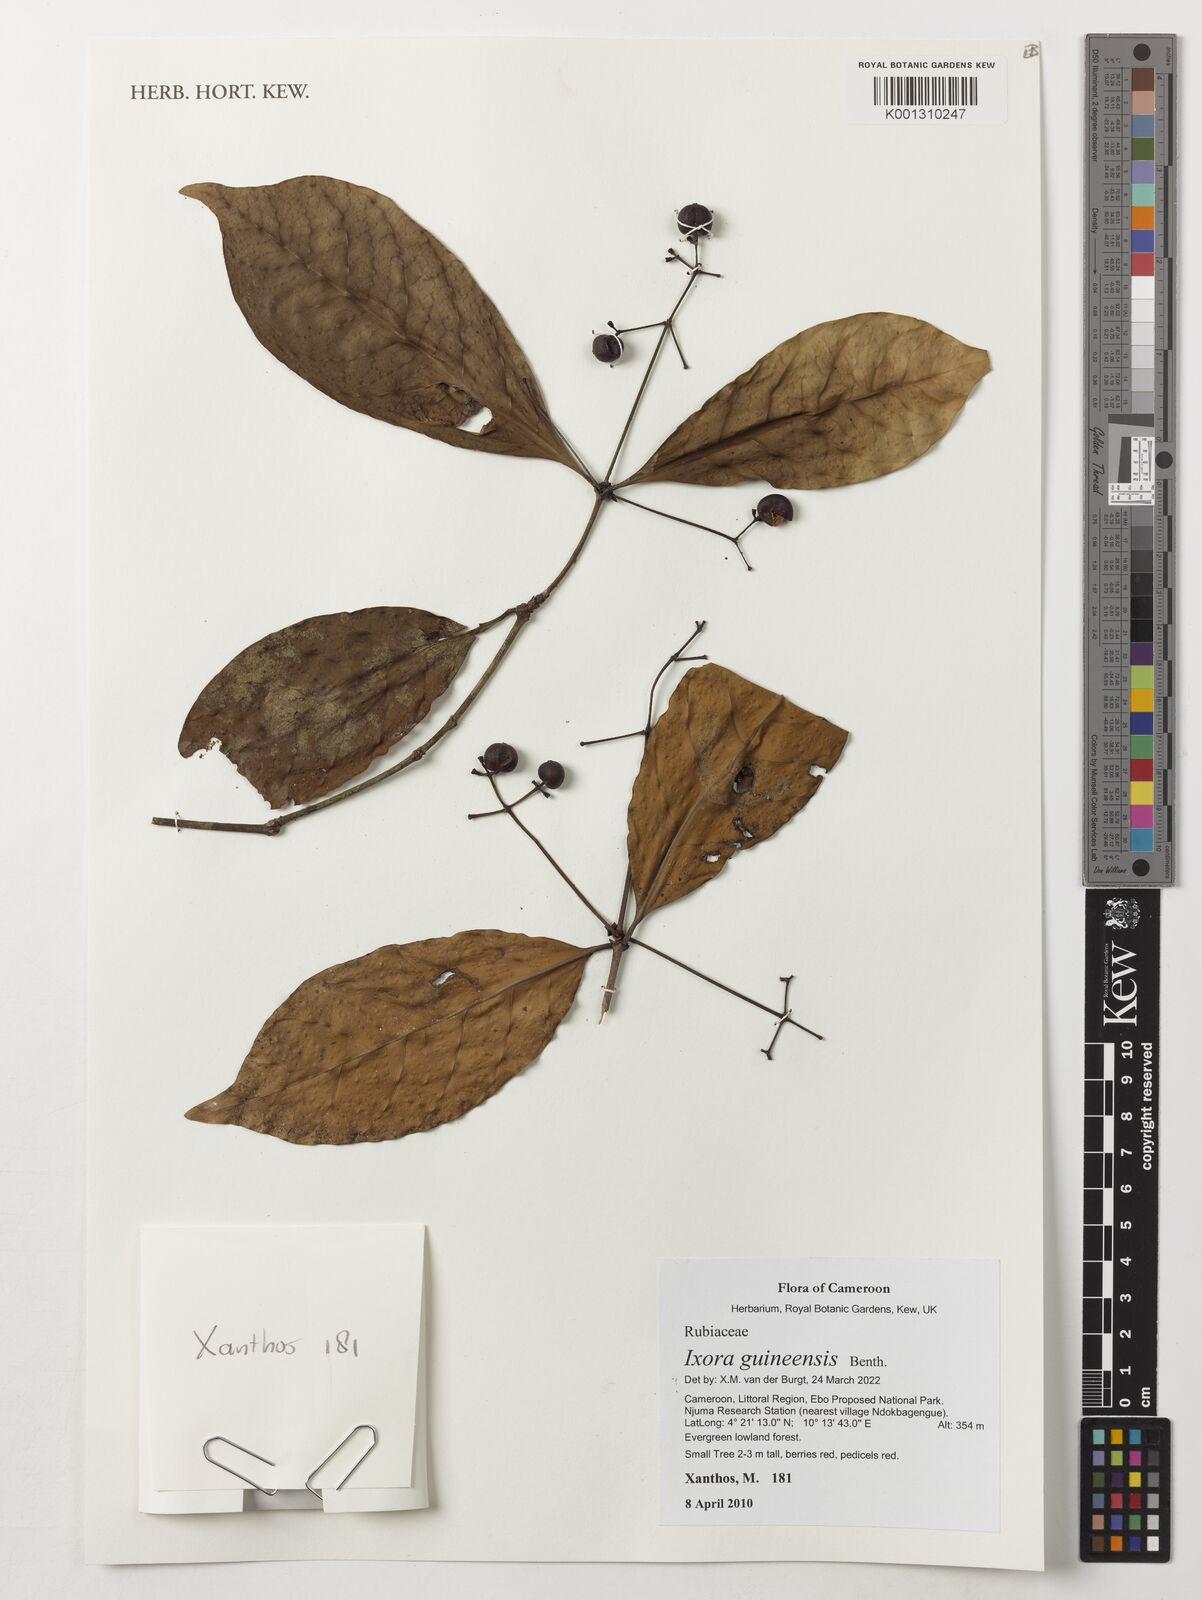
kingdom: Plantae
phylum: Tracheophyta
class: Magnoliopsida
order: Gentianales
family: Rubiaceae
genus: Faramea
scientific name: Faramea lourteigiana
